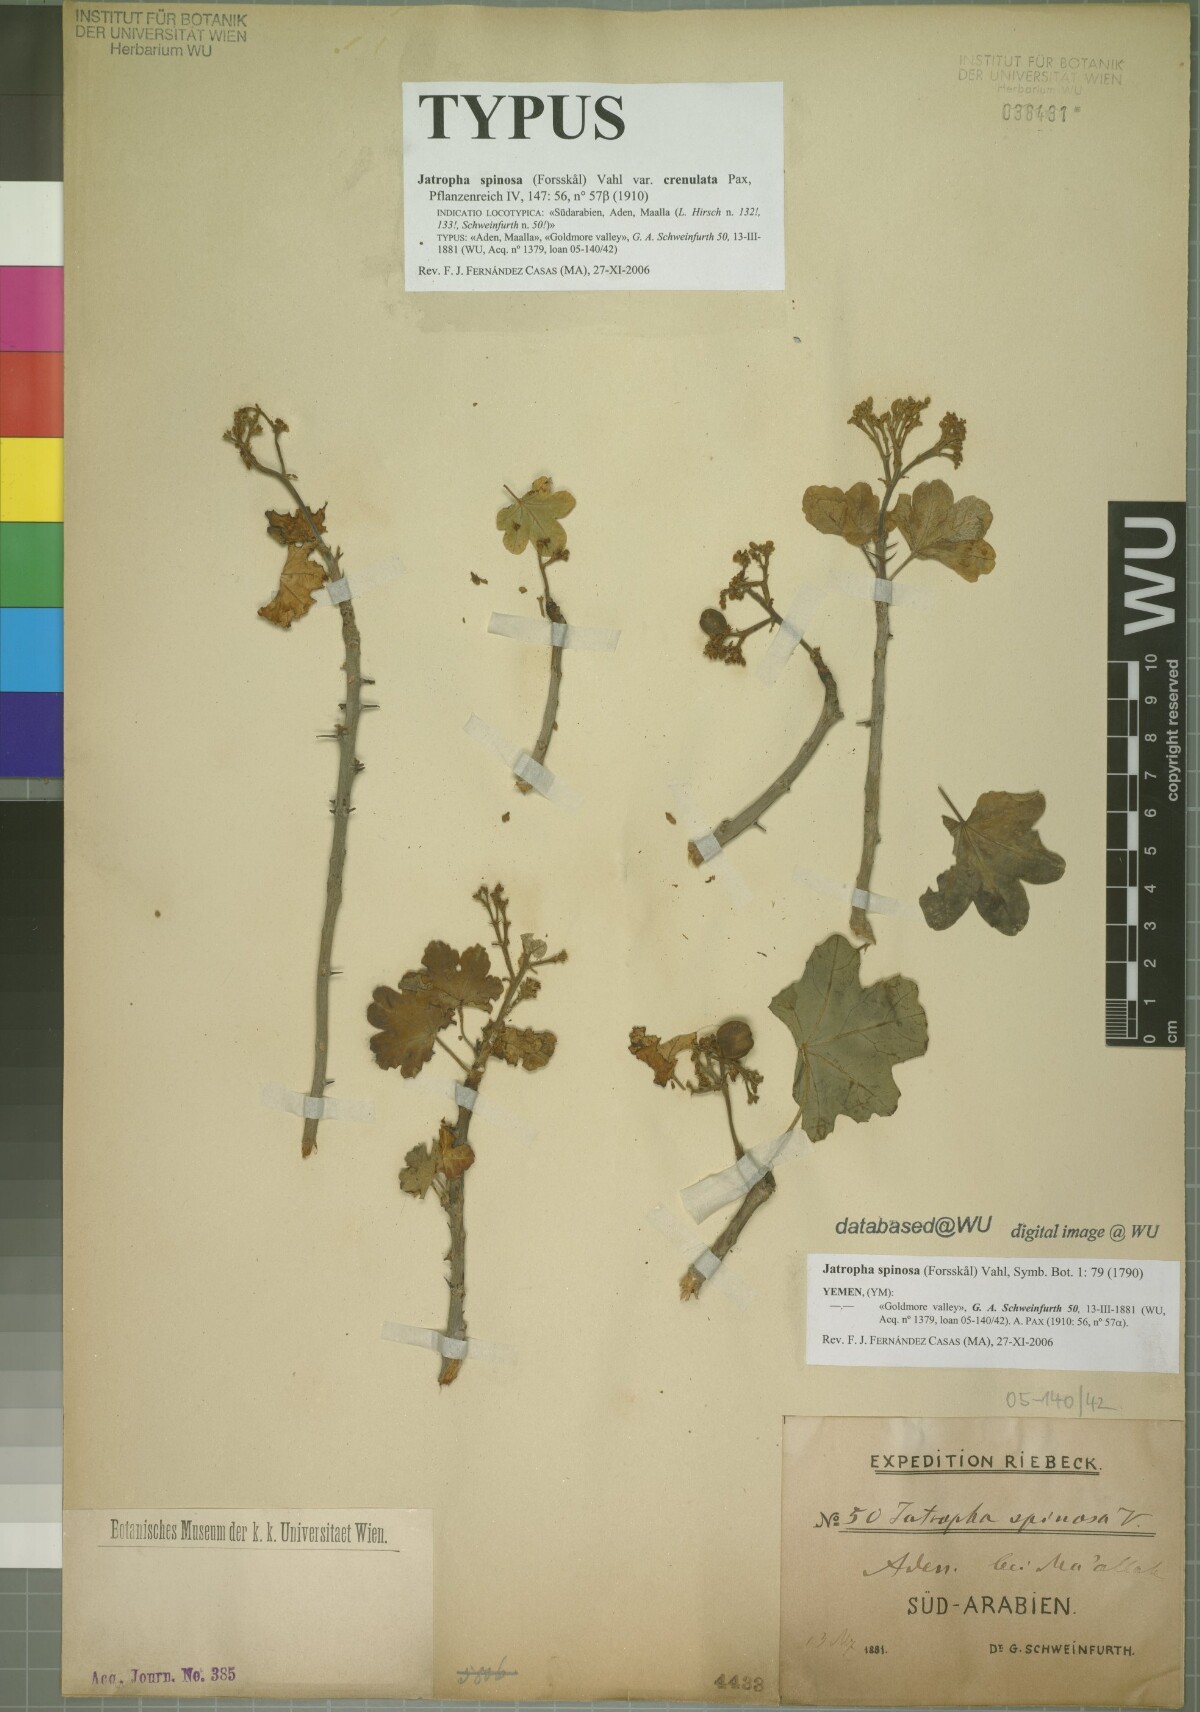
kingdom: Plantae
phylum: Tracheophyta
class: Magnoliopsida
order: Malpighiales
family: Euphorbiaceae
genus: Jatropha
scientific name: Jatropha spinosa
